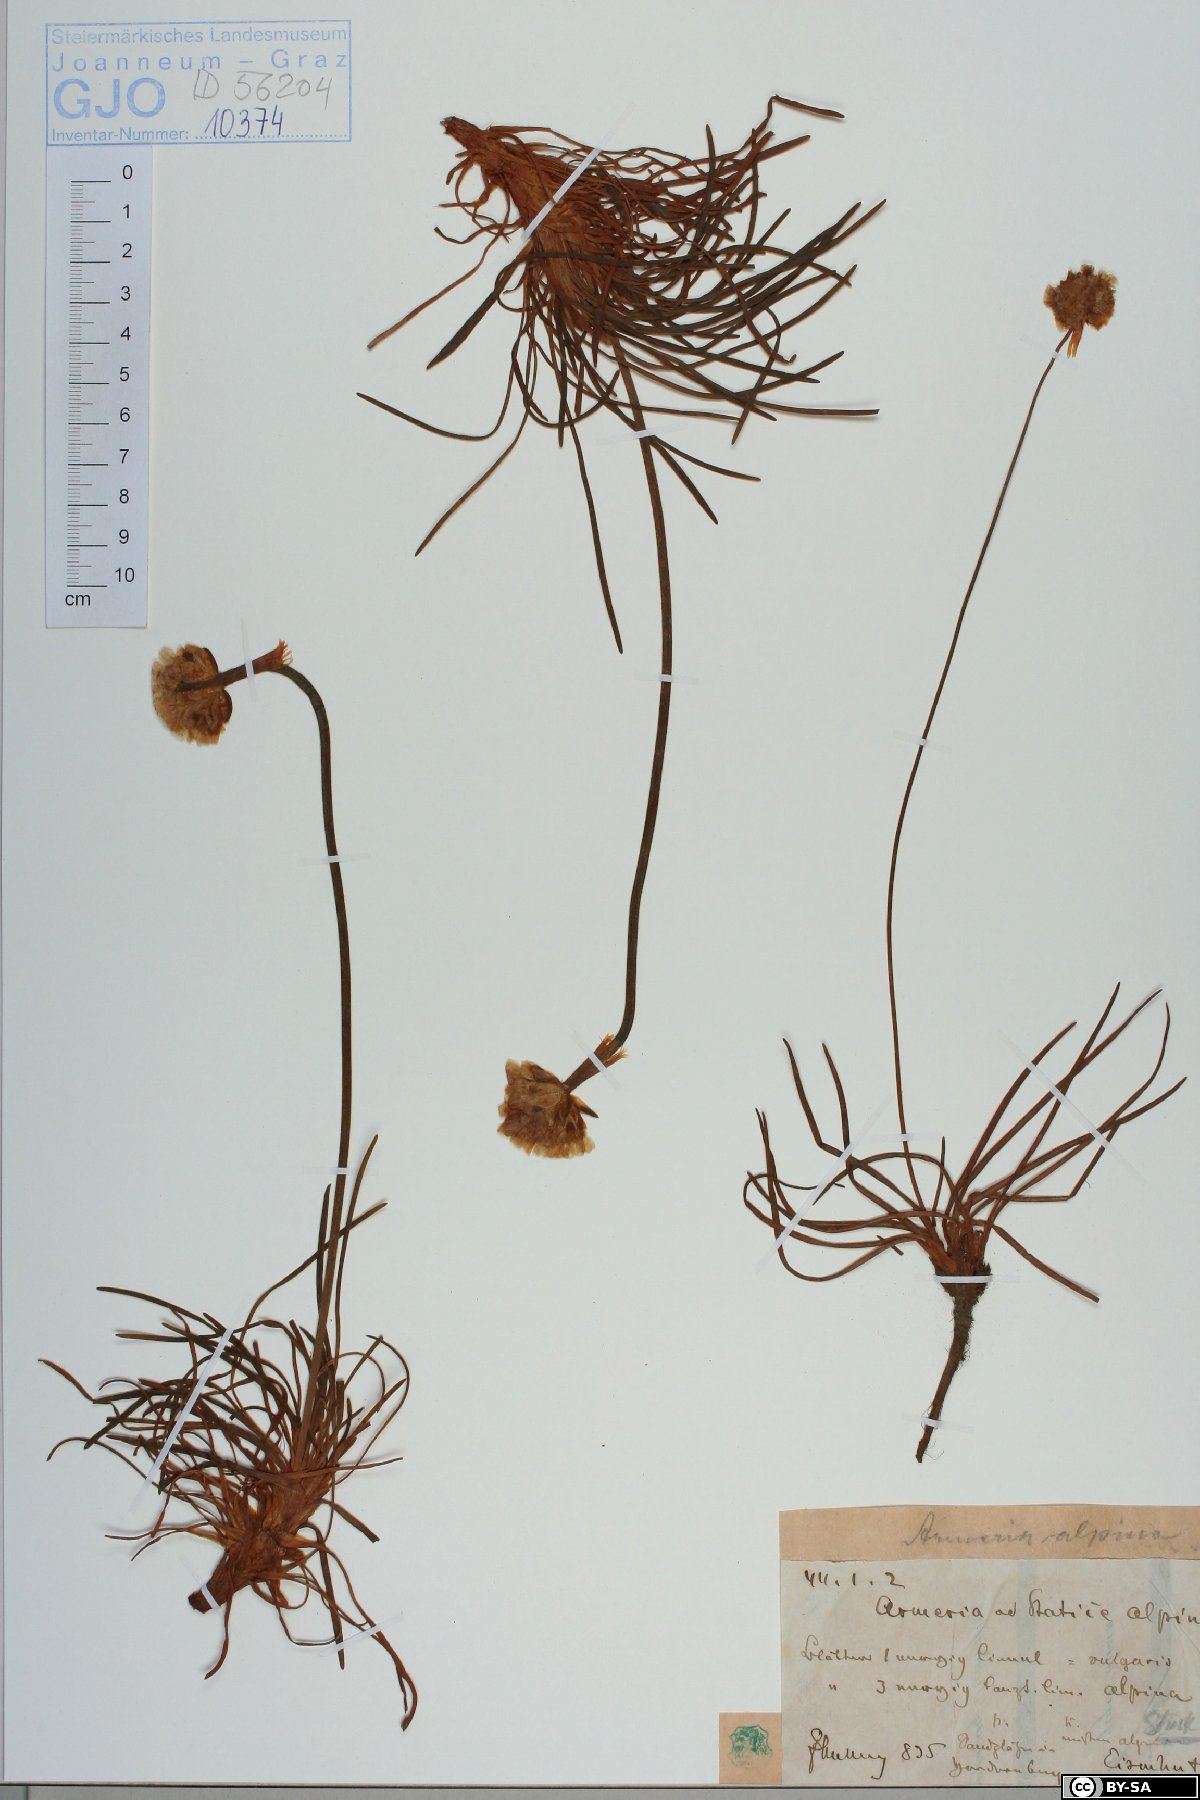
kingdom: Plantae
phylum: Tracheophyta
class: Magnoliopsida
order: Caryophyllales
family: Plumbaginaceae
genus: Armeria
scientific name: Armeria alpina
